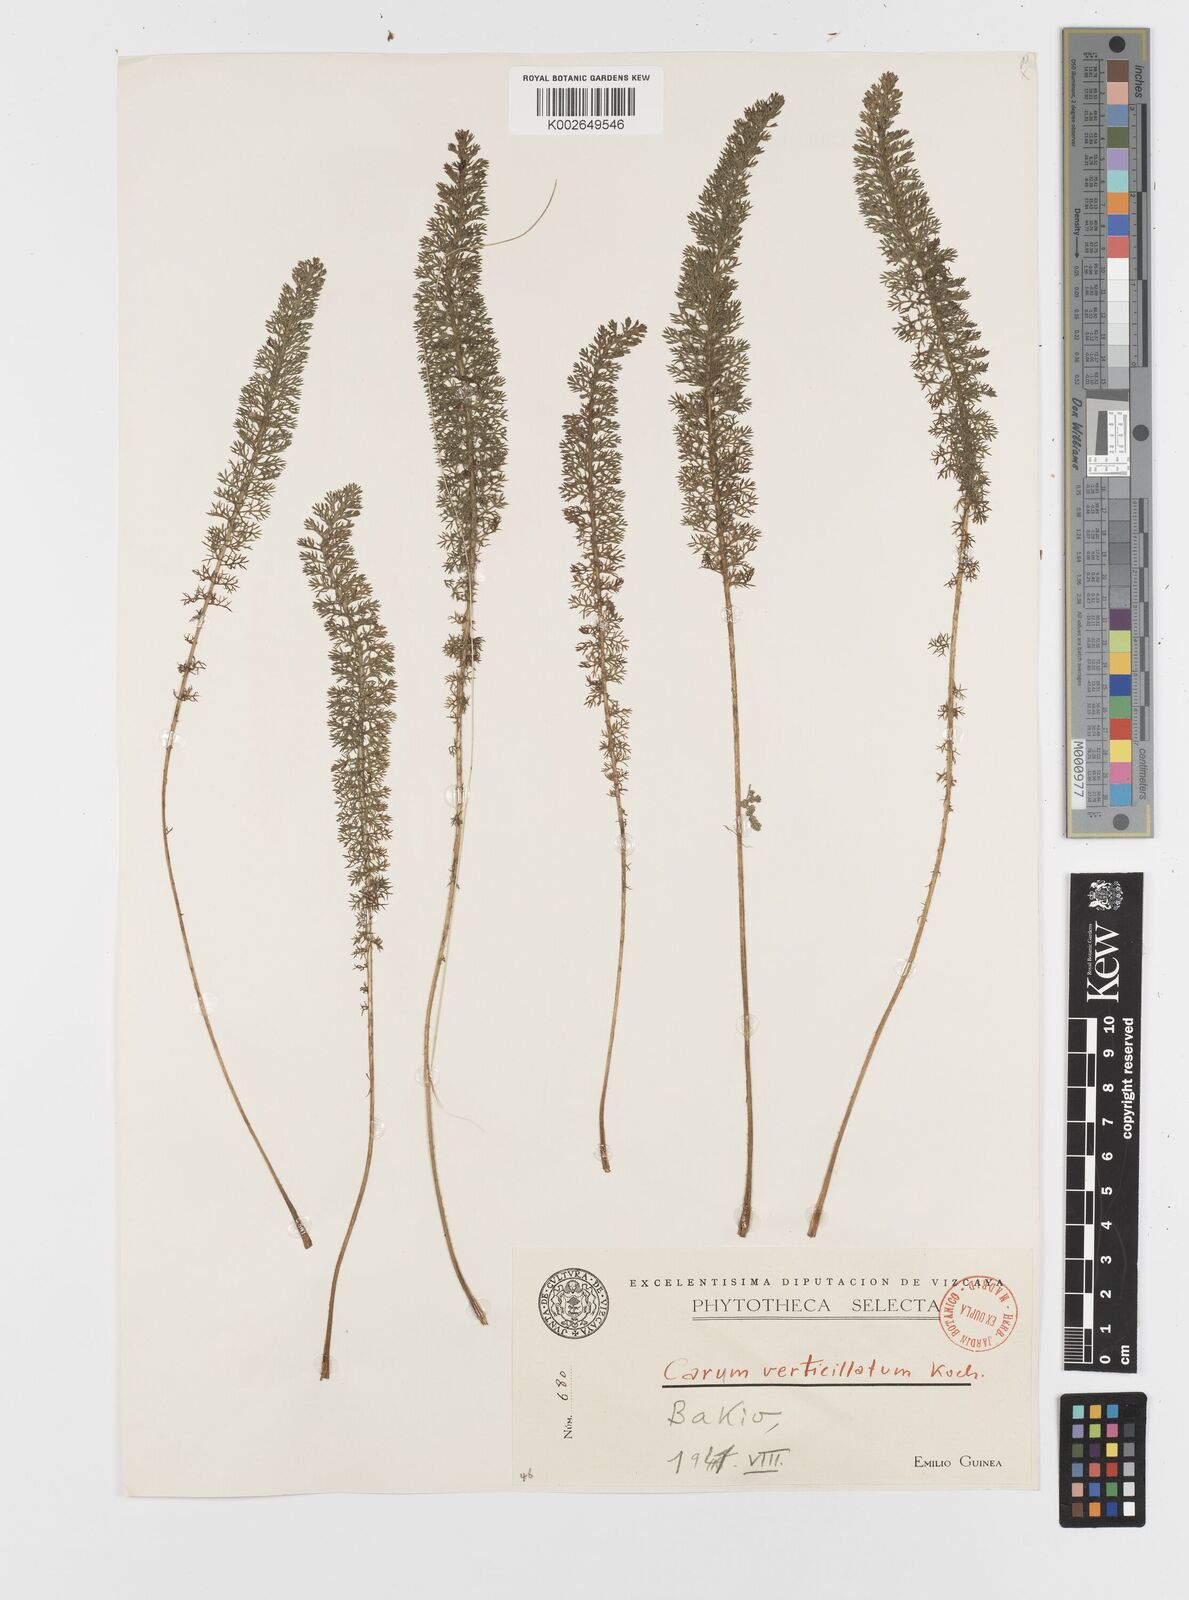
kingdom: Plantae
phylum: Tracheophyta
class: Magnoliopsida
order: Apiales
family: Apiaceae
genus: Trocdaris
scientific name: Trocdaris verticillatum
